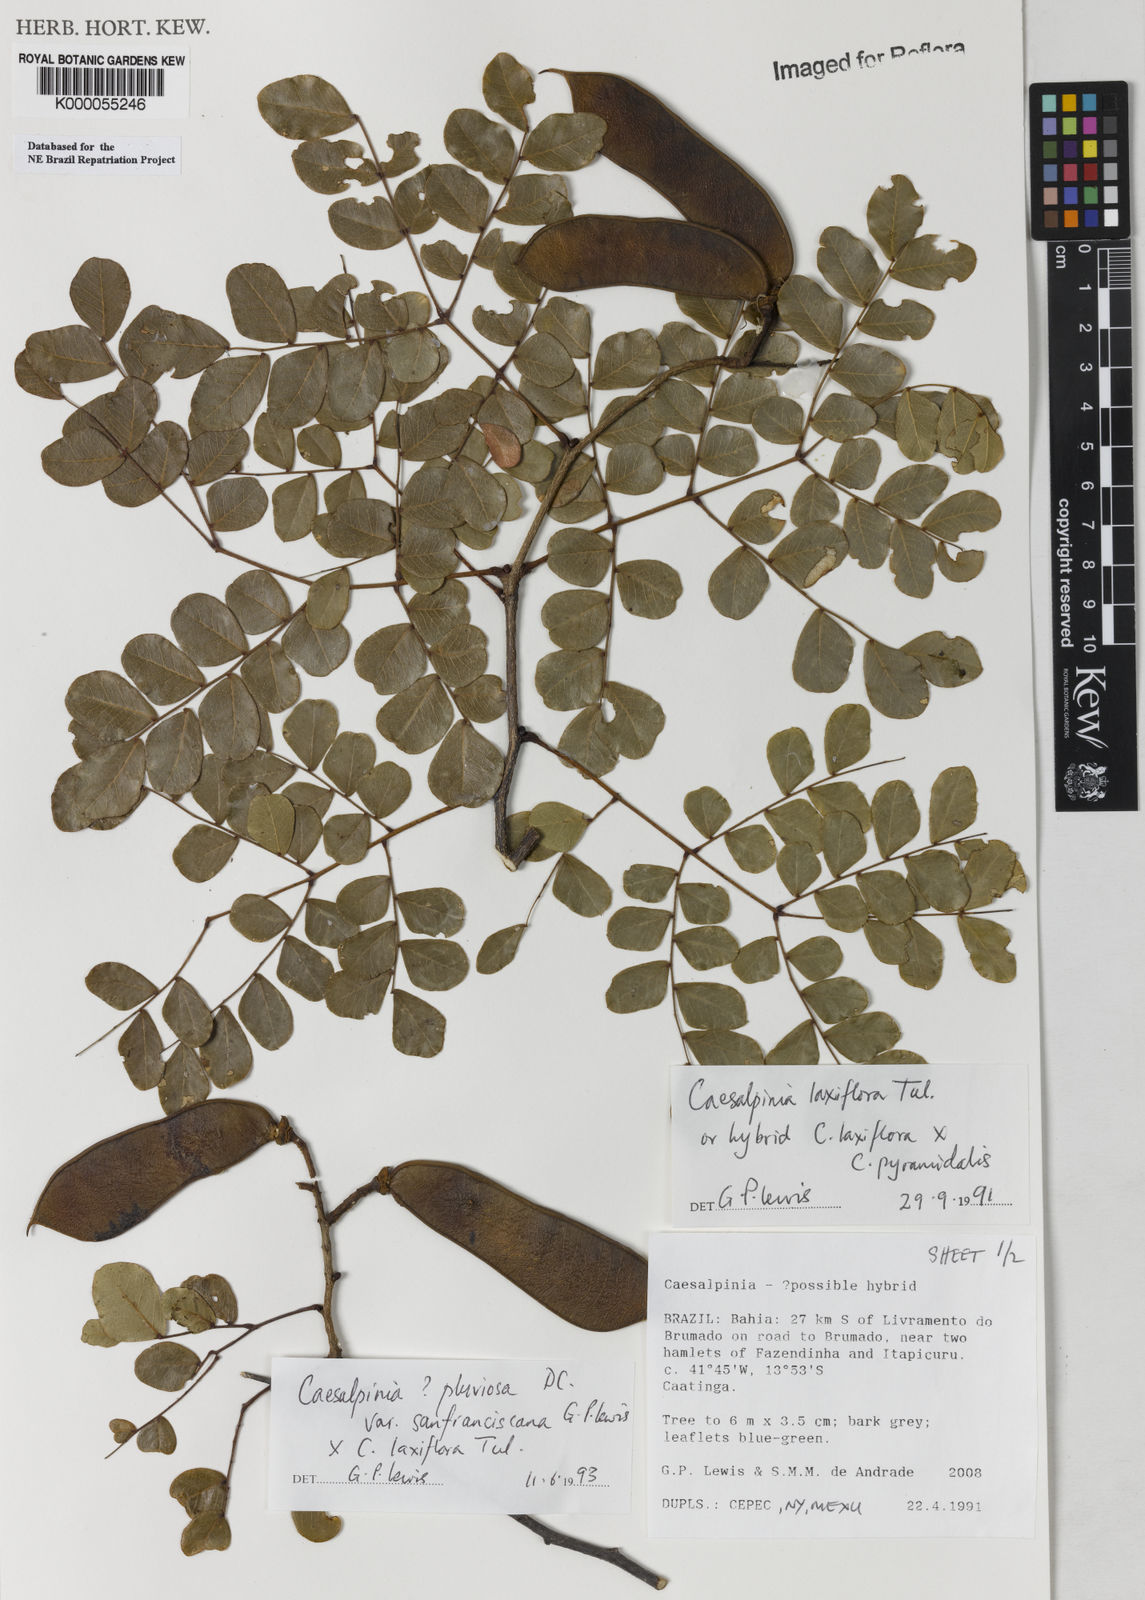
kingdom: Plantae
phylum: Tracheophyta
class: Magnoliopsida
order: Fabales
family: Fabaceae
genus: Cenostigma
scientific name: Cenostigma pluviosum
